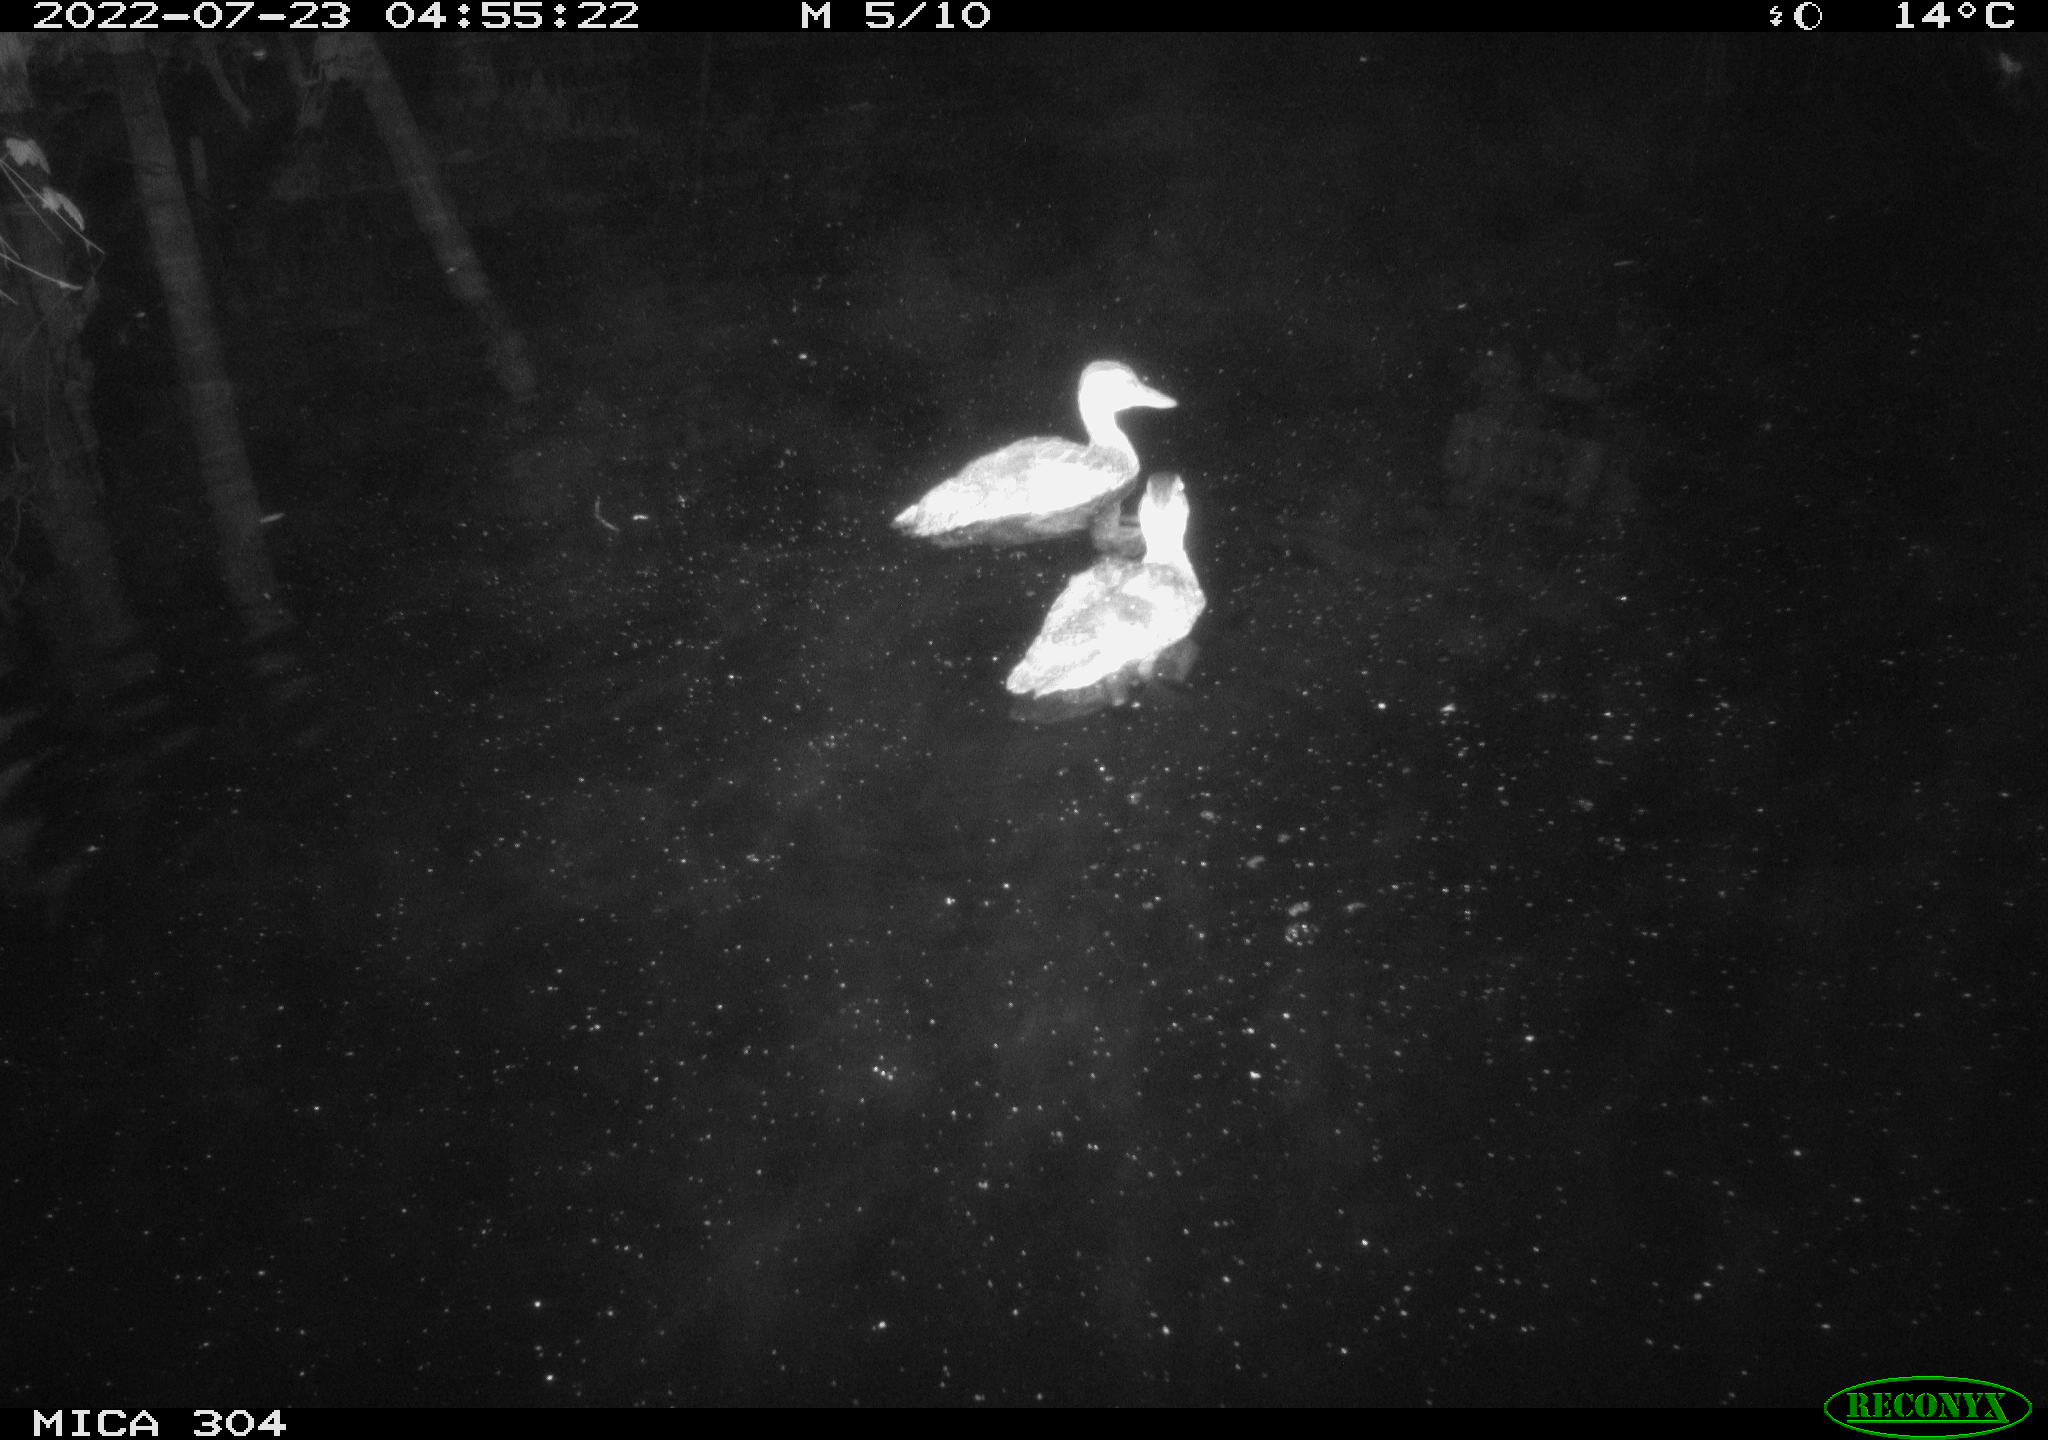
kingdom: Animalia
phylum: Chordata
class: Aves
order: Anseriformes
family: Anatidae
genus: Mareca
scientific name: Mareca strepera
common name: Gadwall
